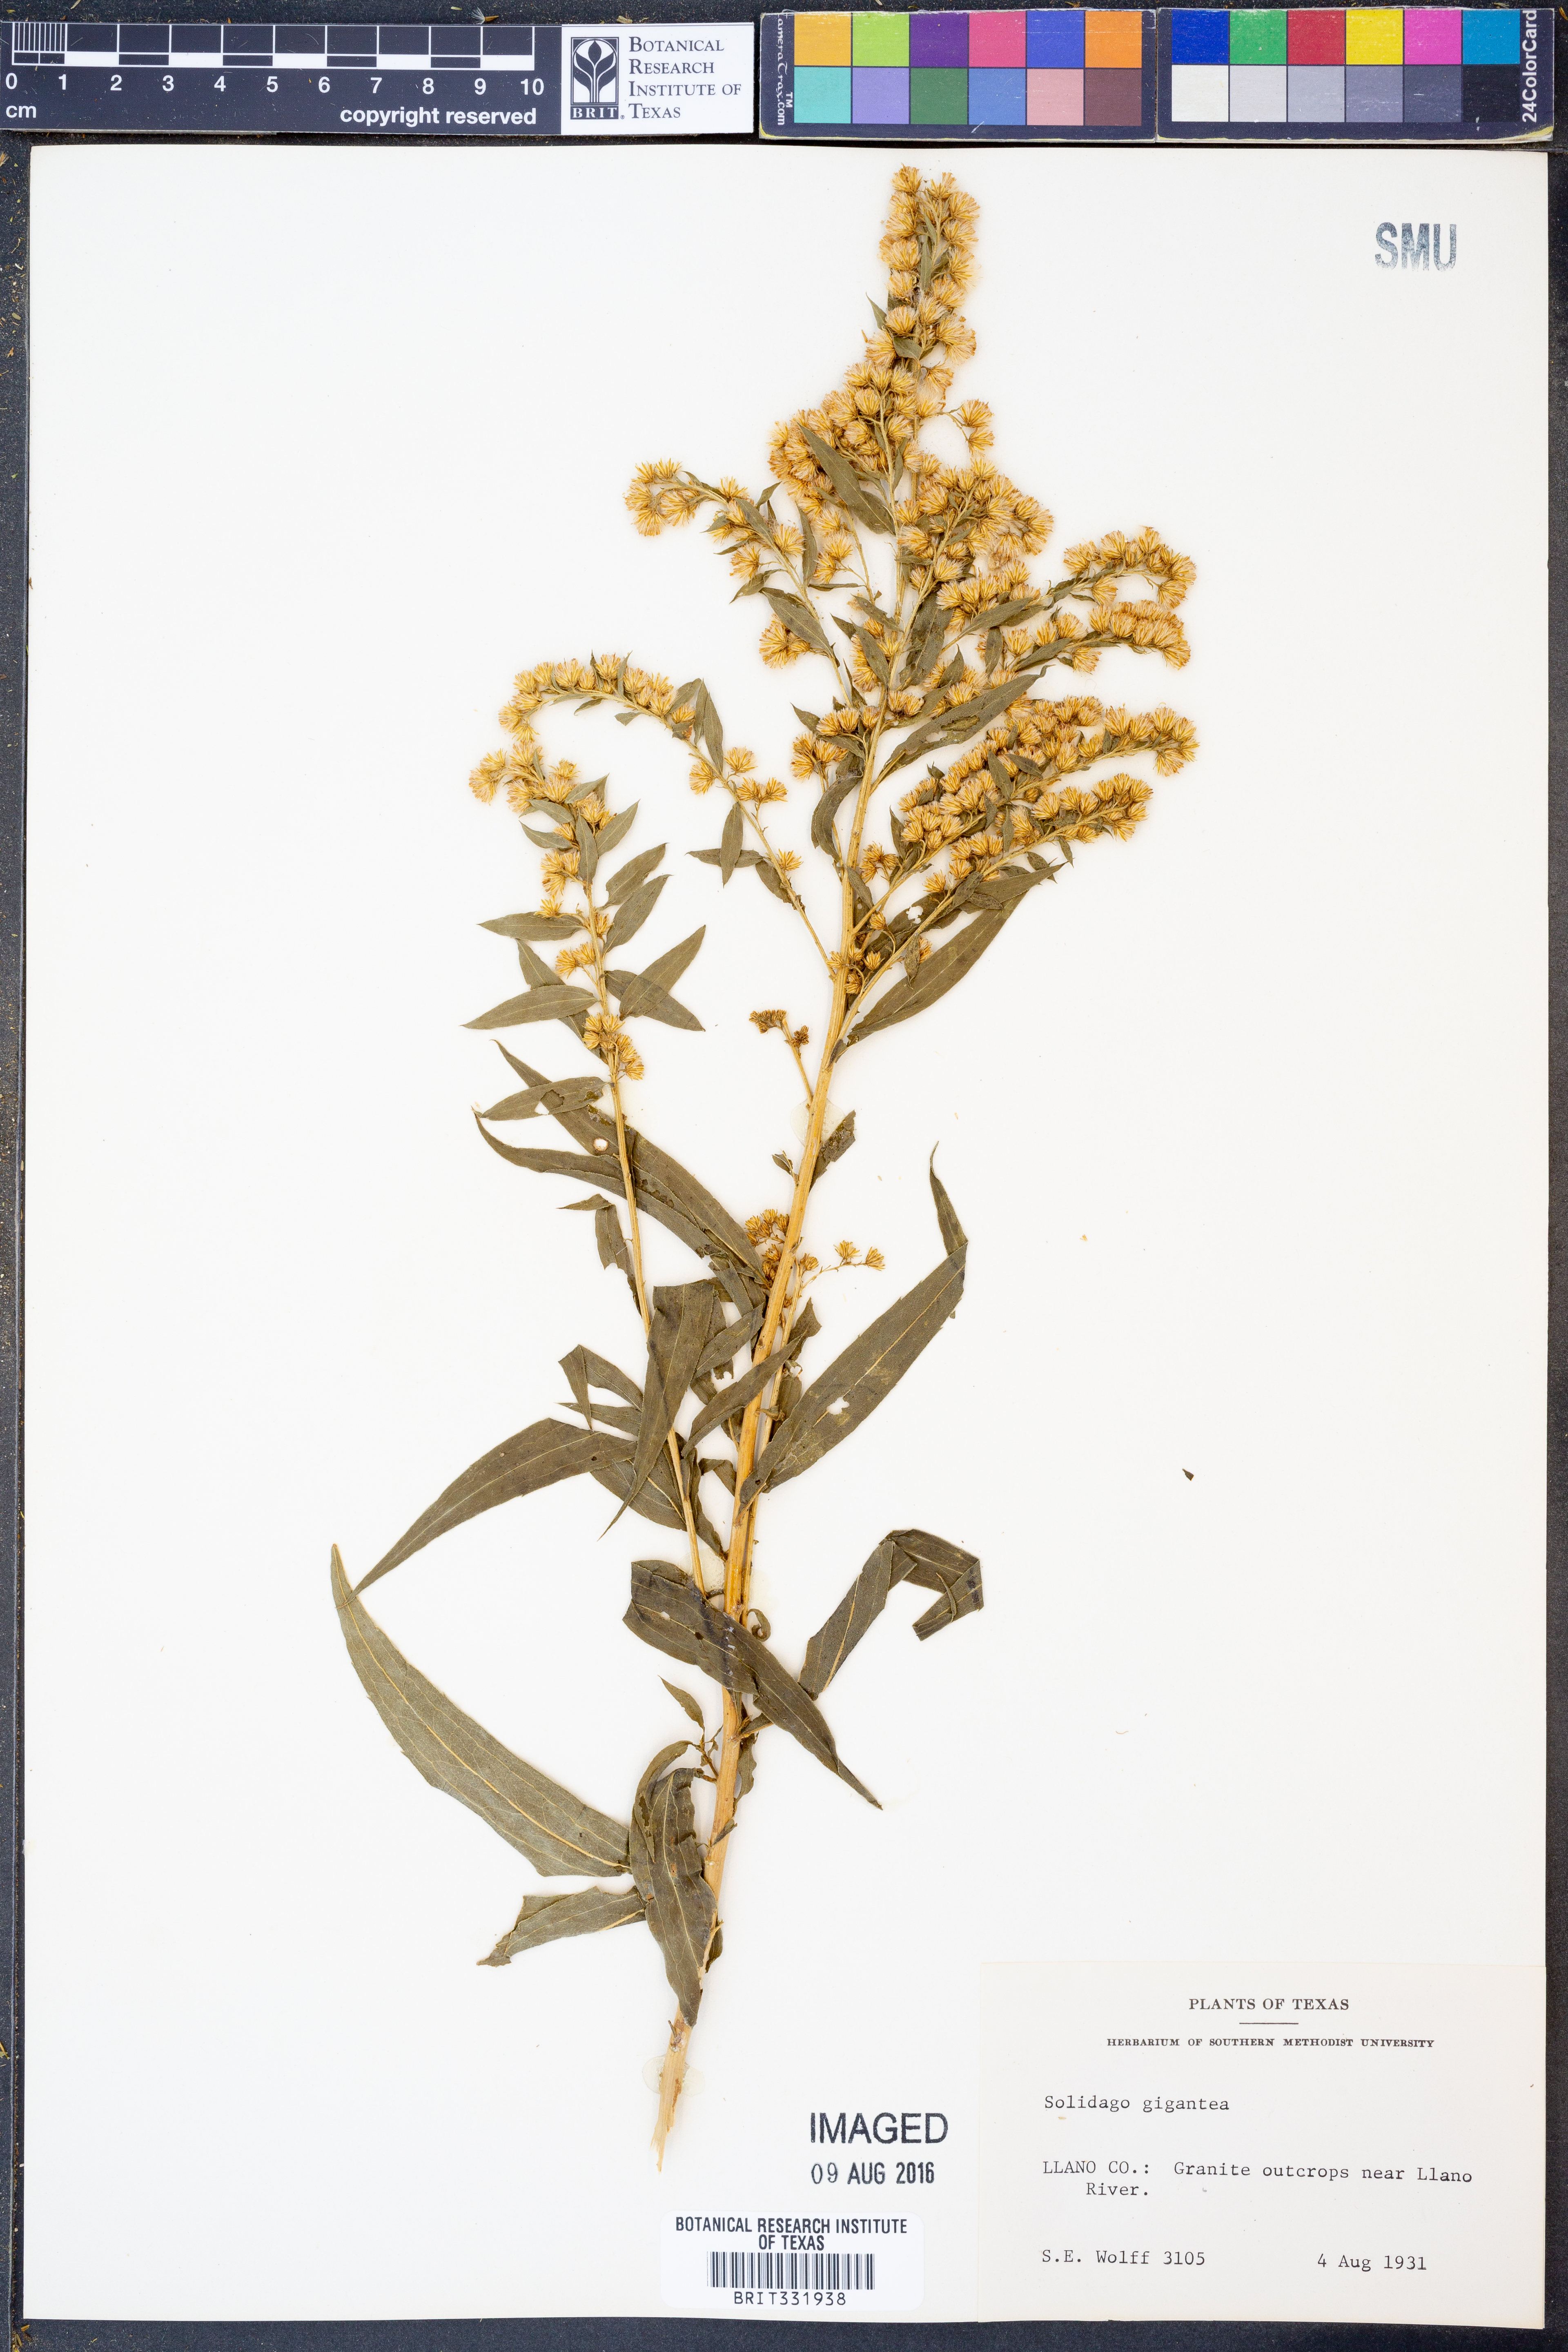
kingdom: Plantae
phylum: Tracheophyta
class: Magnoliopsida
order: Asterales
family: Asteraceae
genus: Solidago
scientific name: Solidago gigantea
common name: Giant goldenrod
